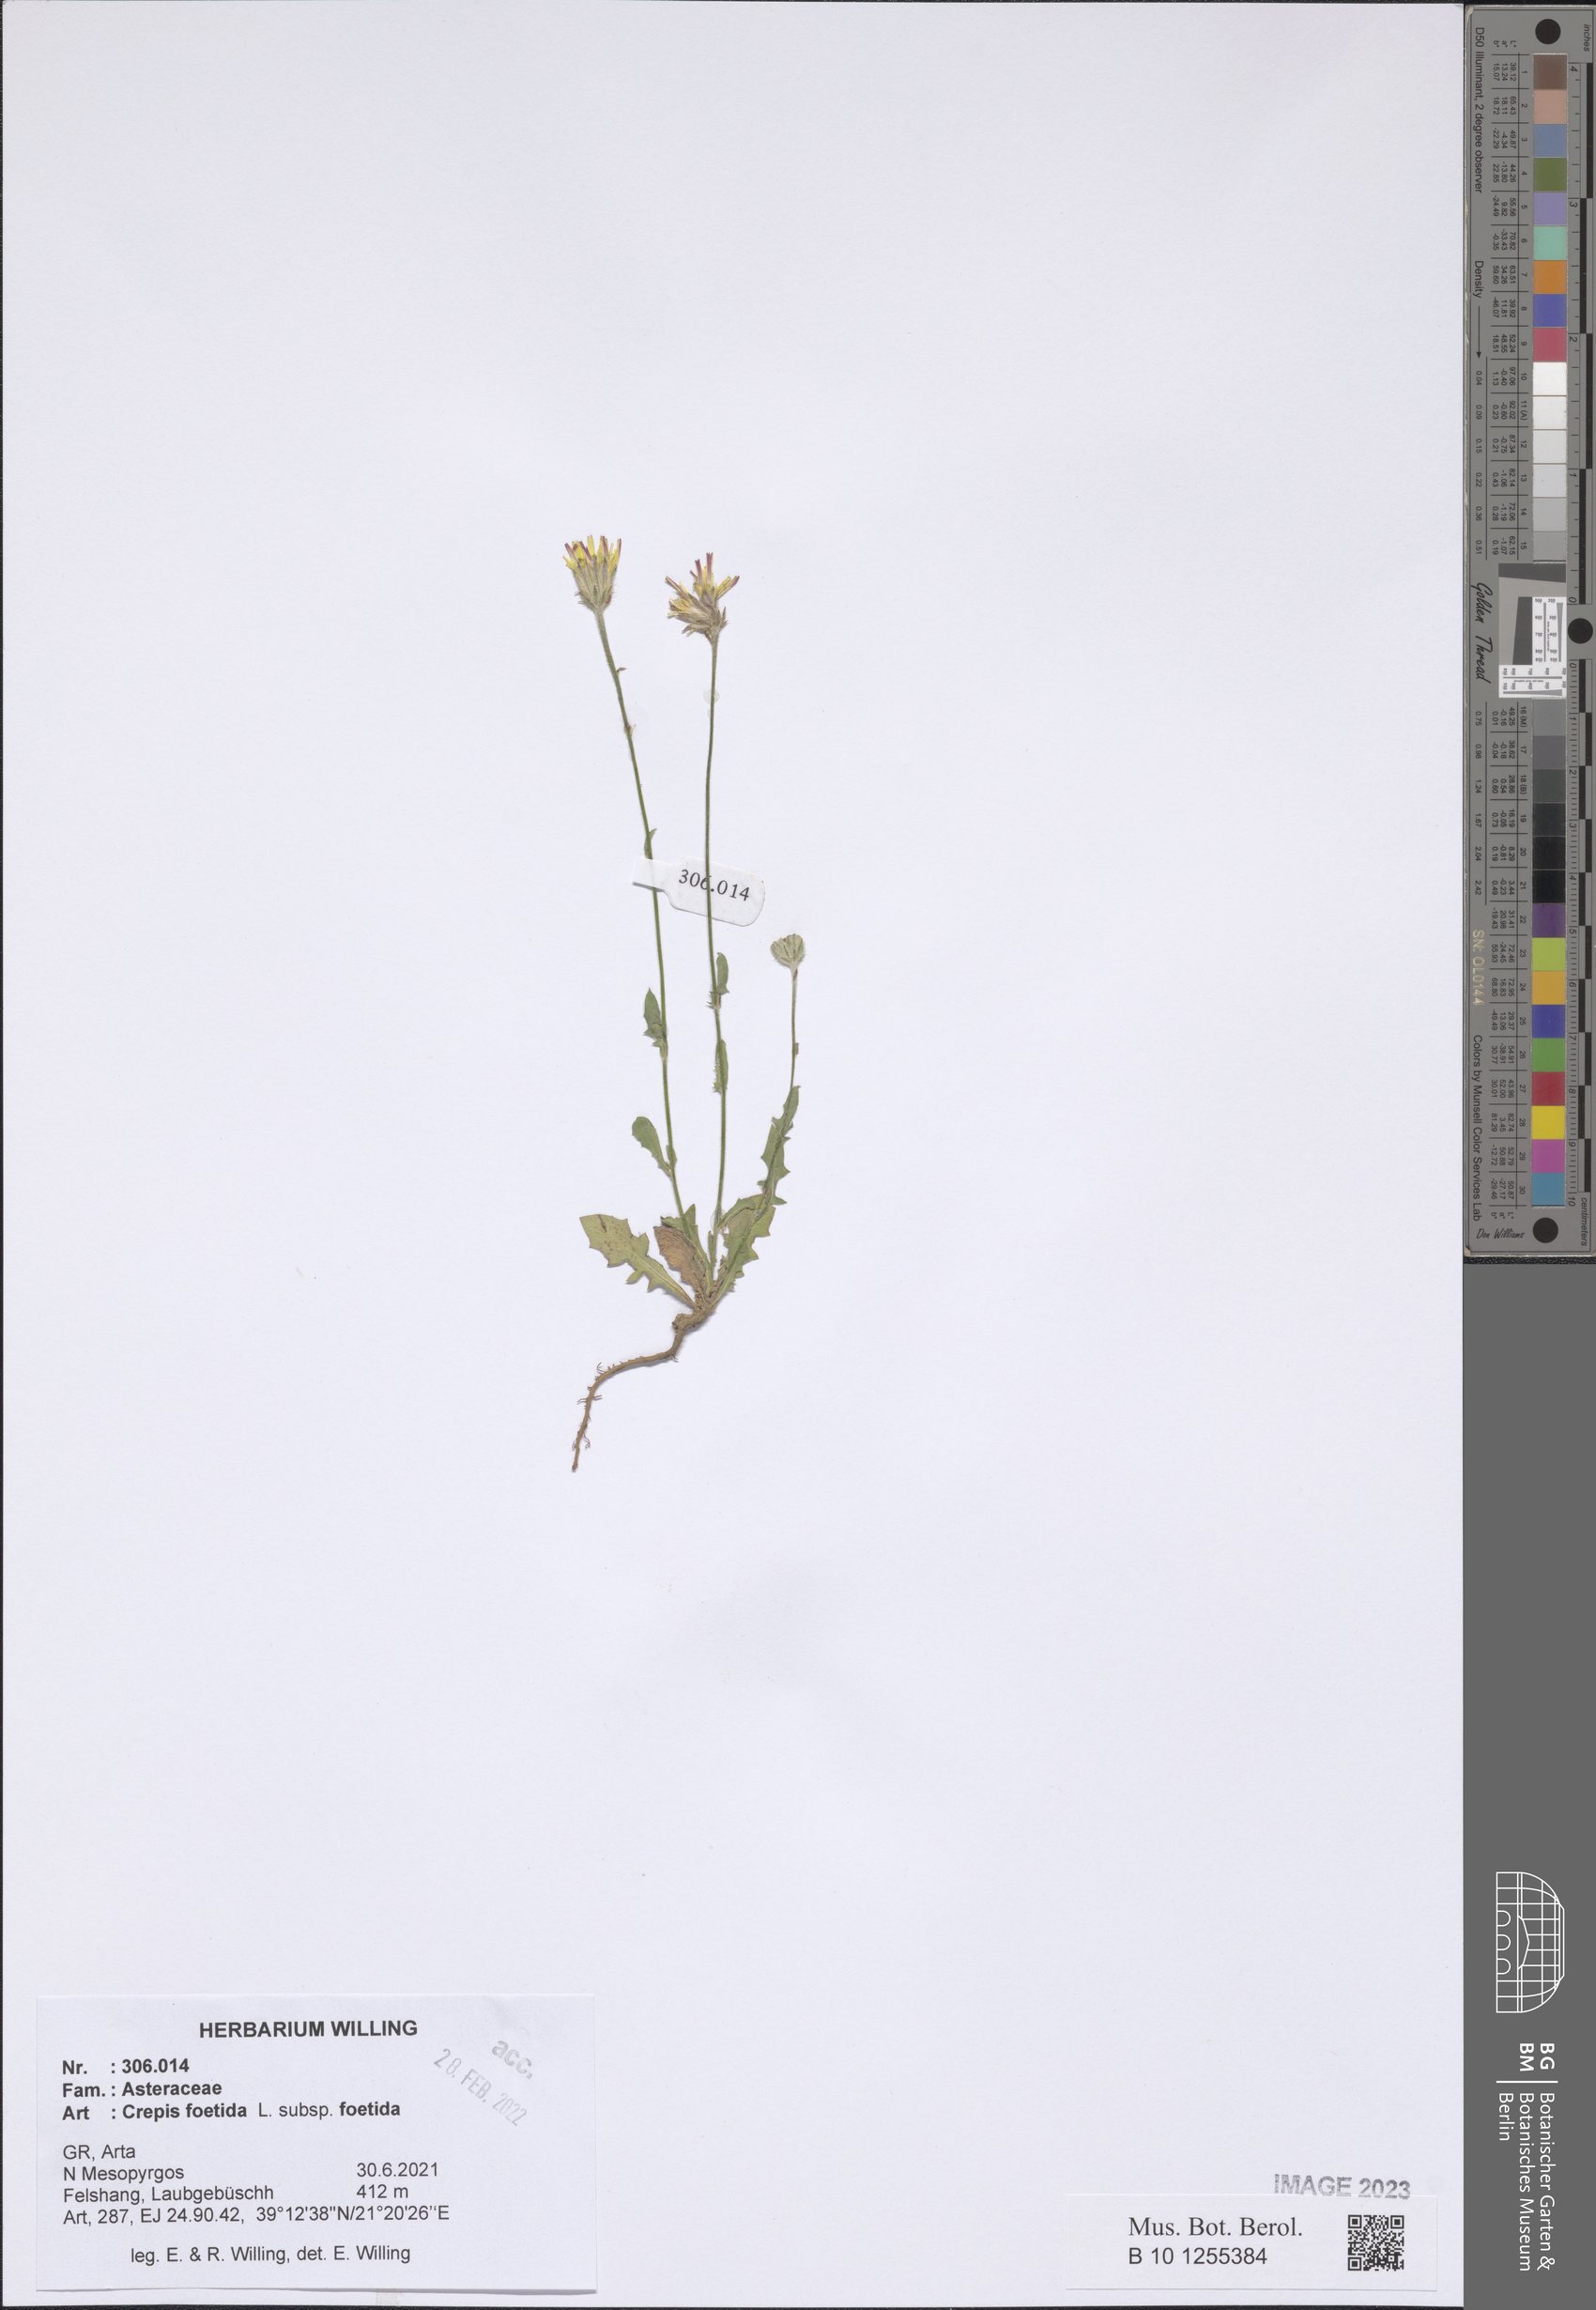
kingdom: Plantae
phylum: Tracheophyta
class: Magnoliopsida
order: Asterales
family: Asteraceae
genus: Crepis
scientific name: Crepis foetida
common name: Stinking hawk's-beard
